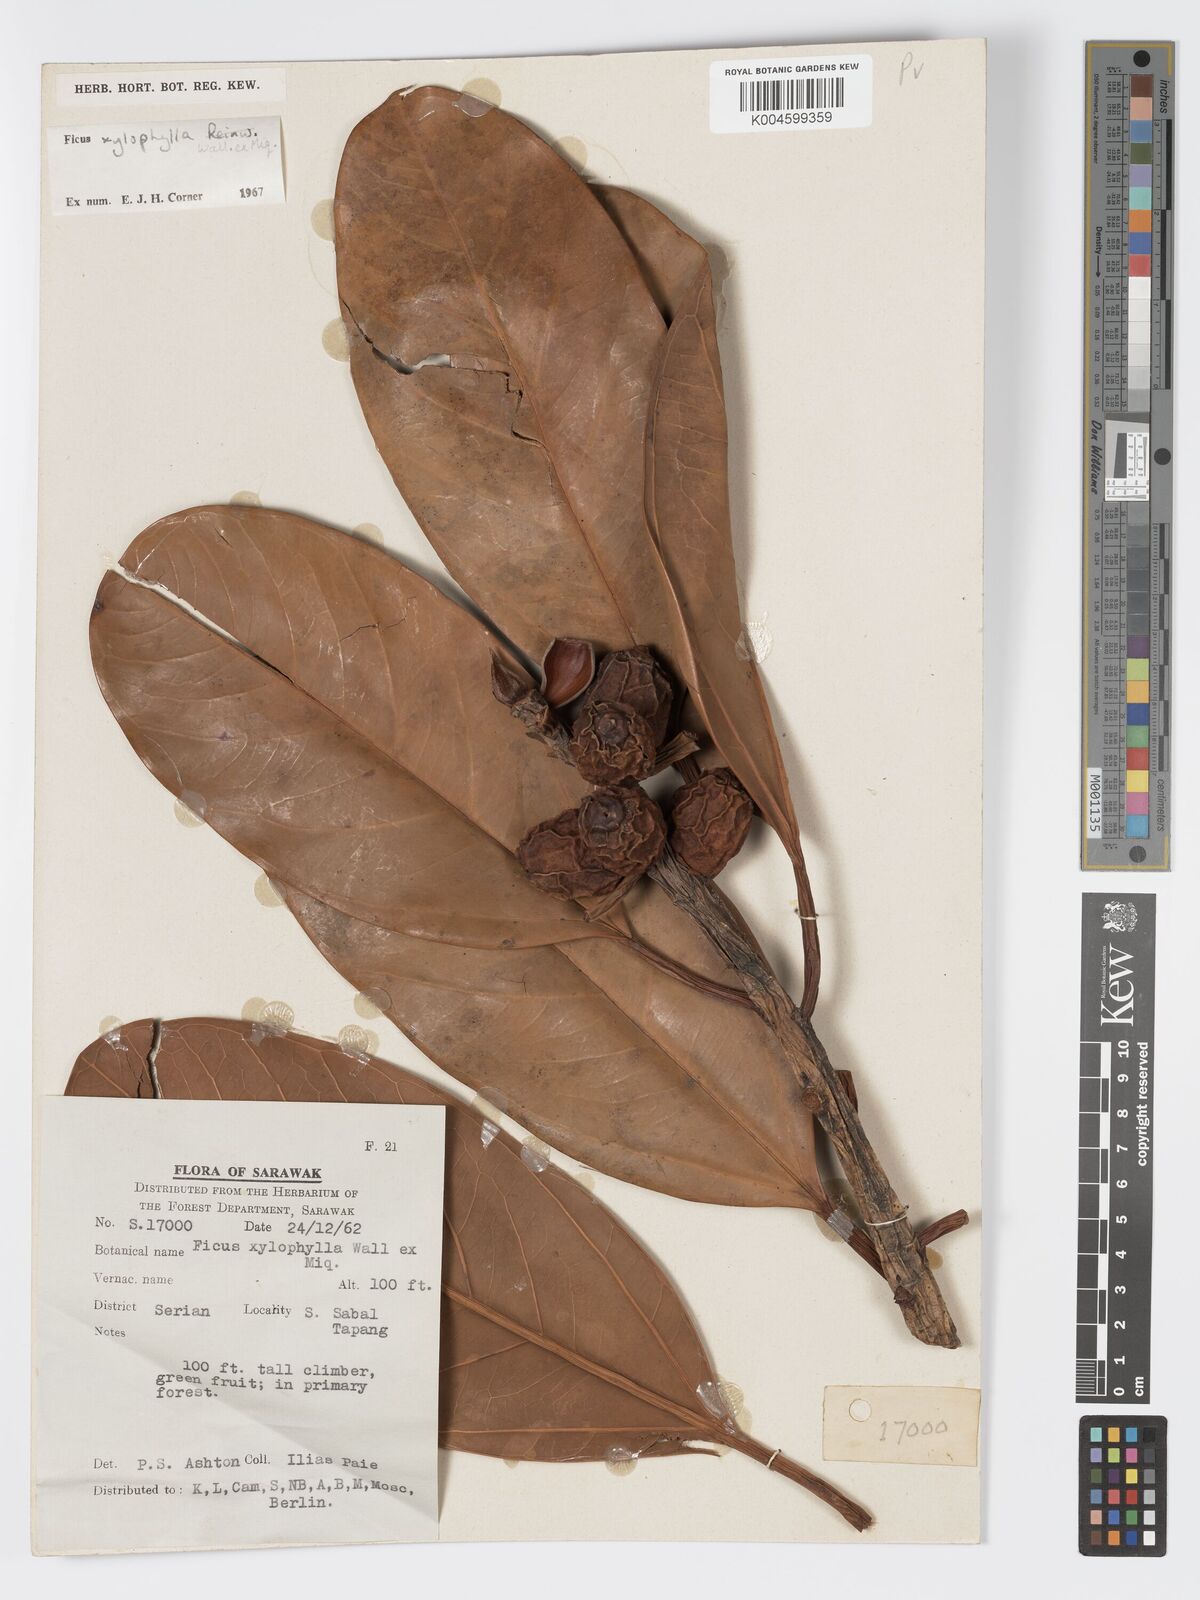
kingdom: Plantae
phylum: Tracheophyta
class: Magnoliopsida
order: Rosales
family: Moraceae
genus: Ficus
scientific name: Ficus xylophylla
